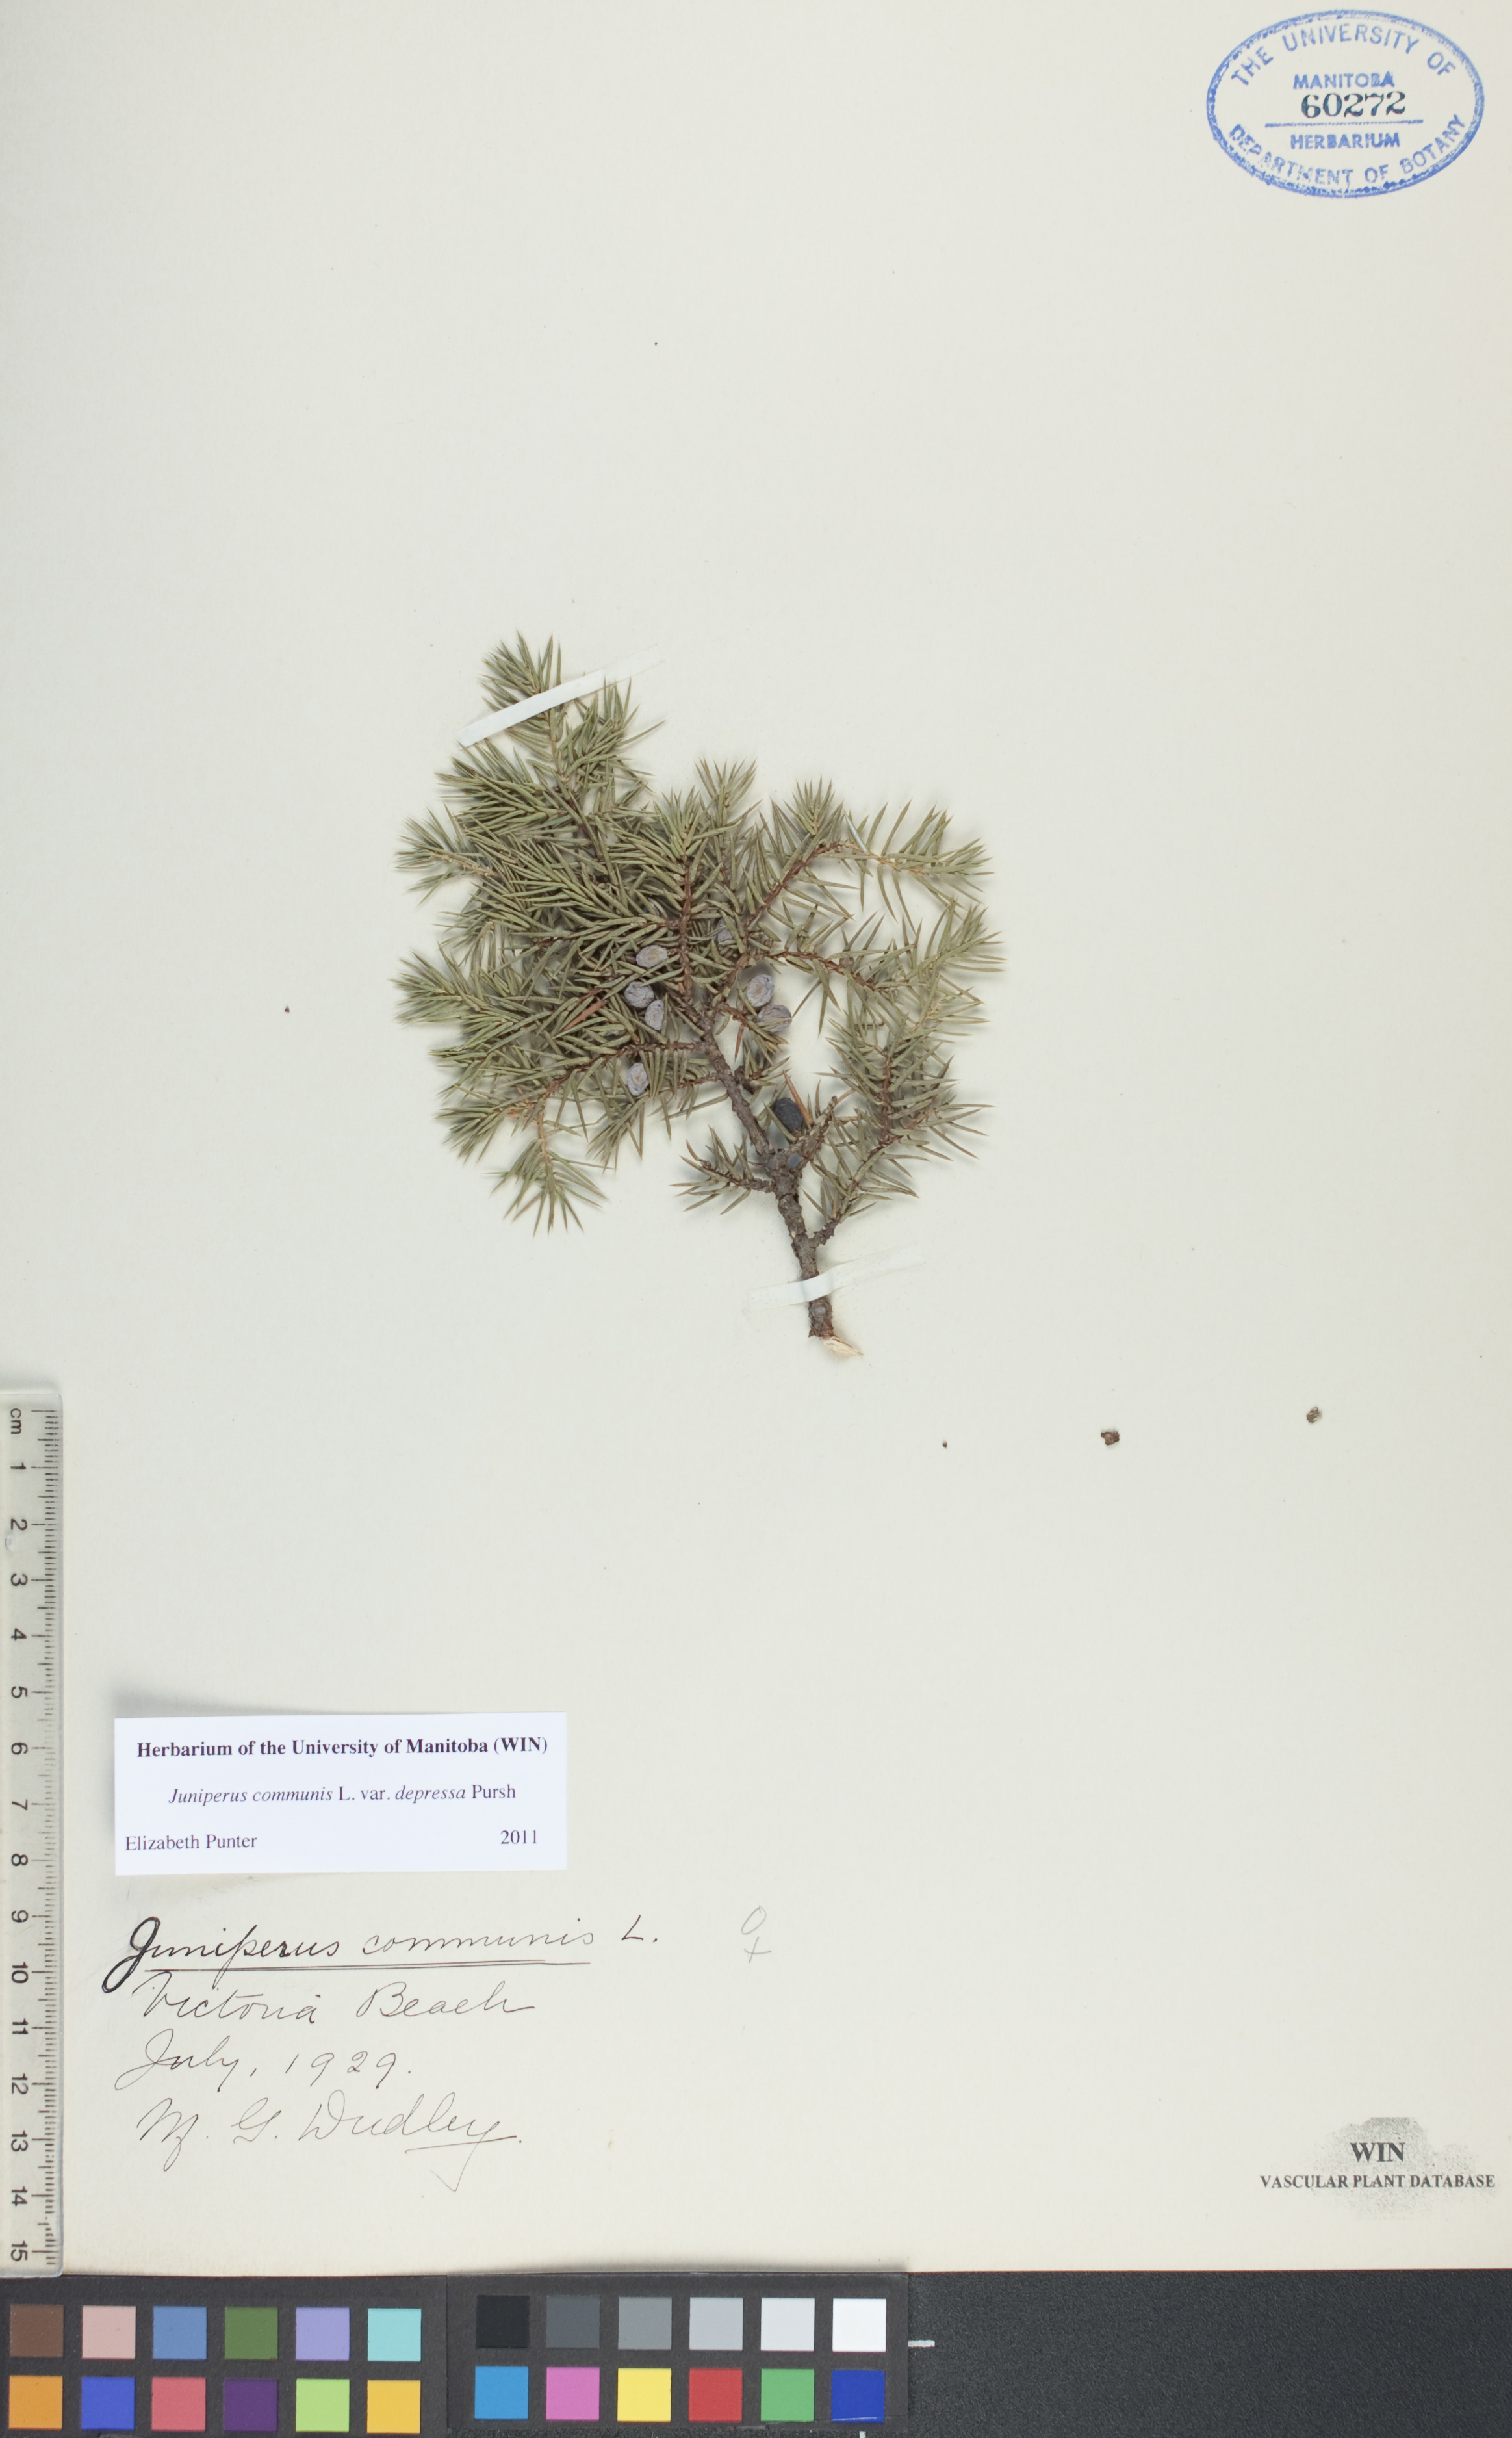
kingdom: Plantae
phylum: Tracheophyta
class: Pinopsida
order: Pinales
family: Cupressaceae
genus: Juniperus
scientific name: Juniperus communis
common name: Common juniper
